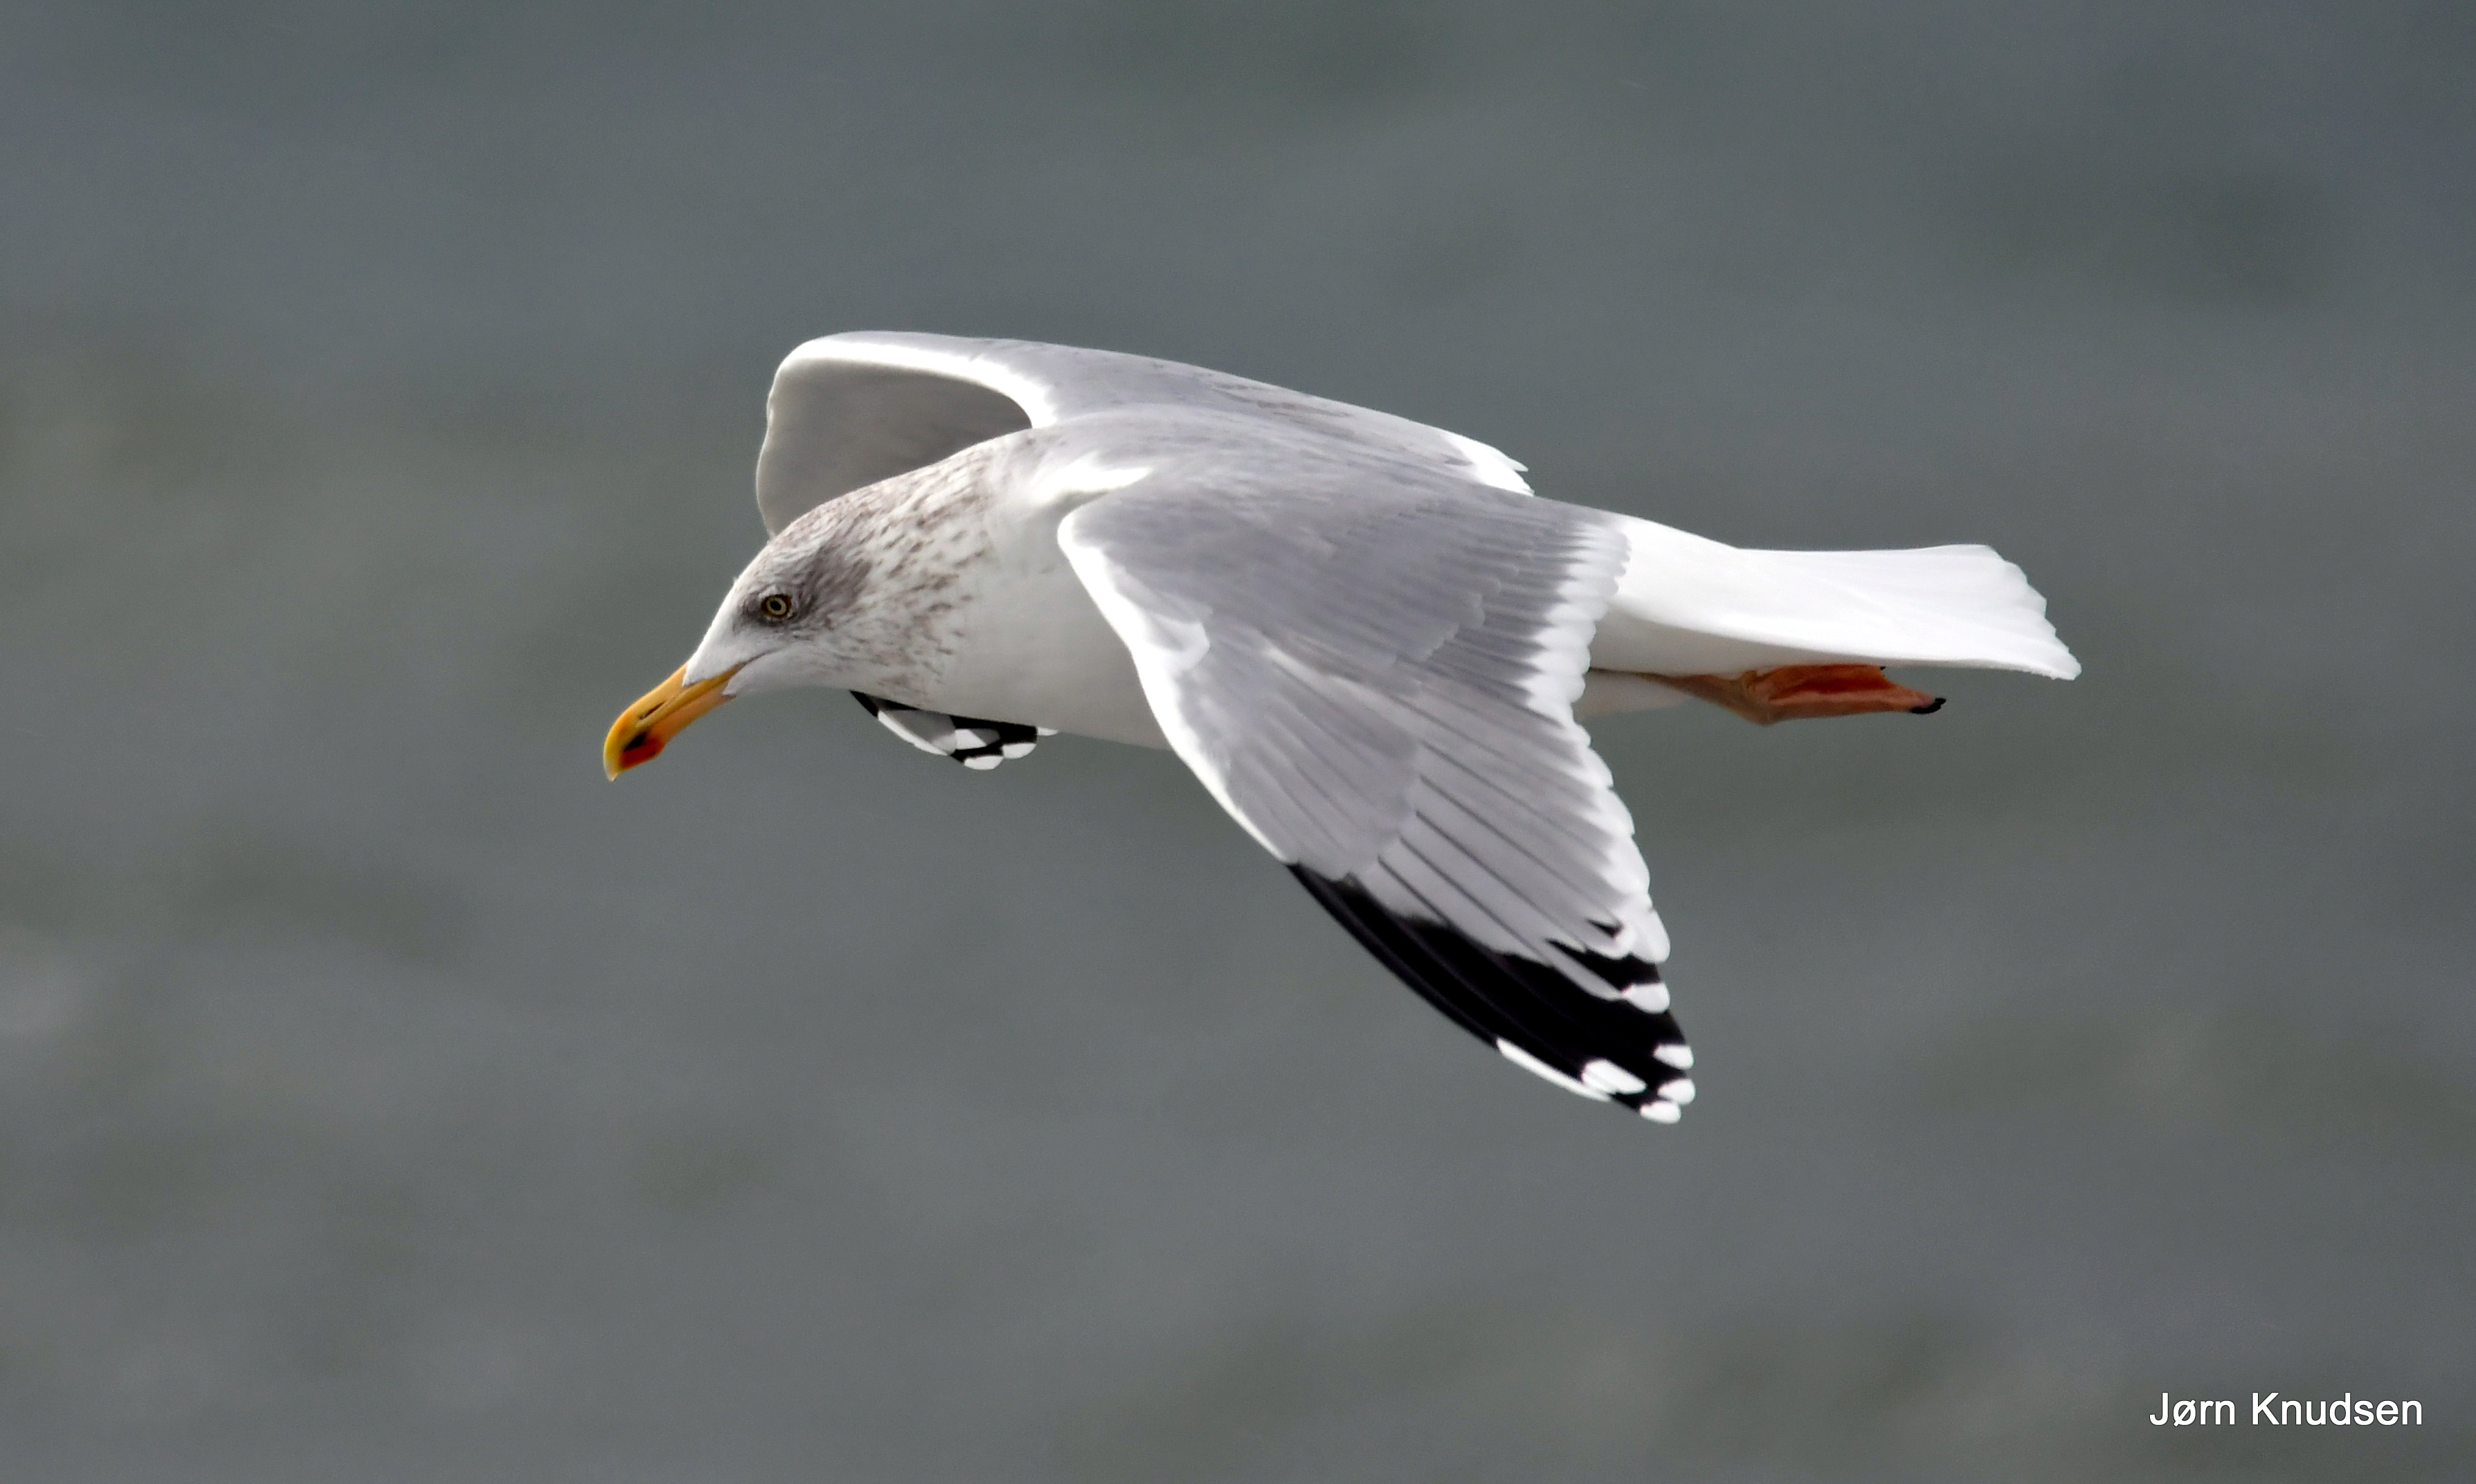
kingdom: Animalia
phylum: Chordata
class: Aves
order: Charadriiformes
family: Laridae
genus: Larus
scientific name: Larus argentatus
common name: Sølvmåge
